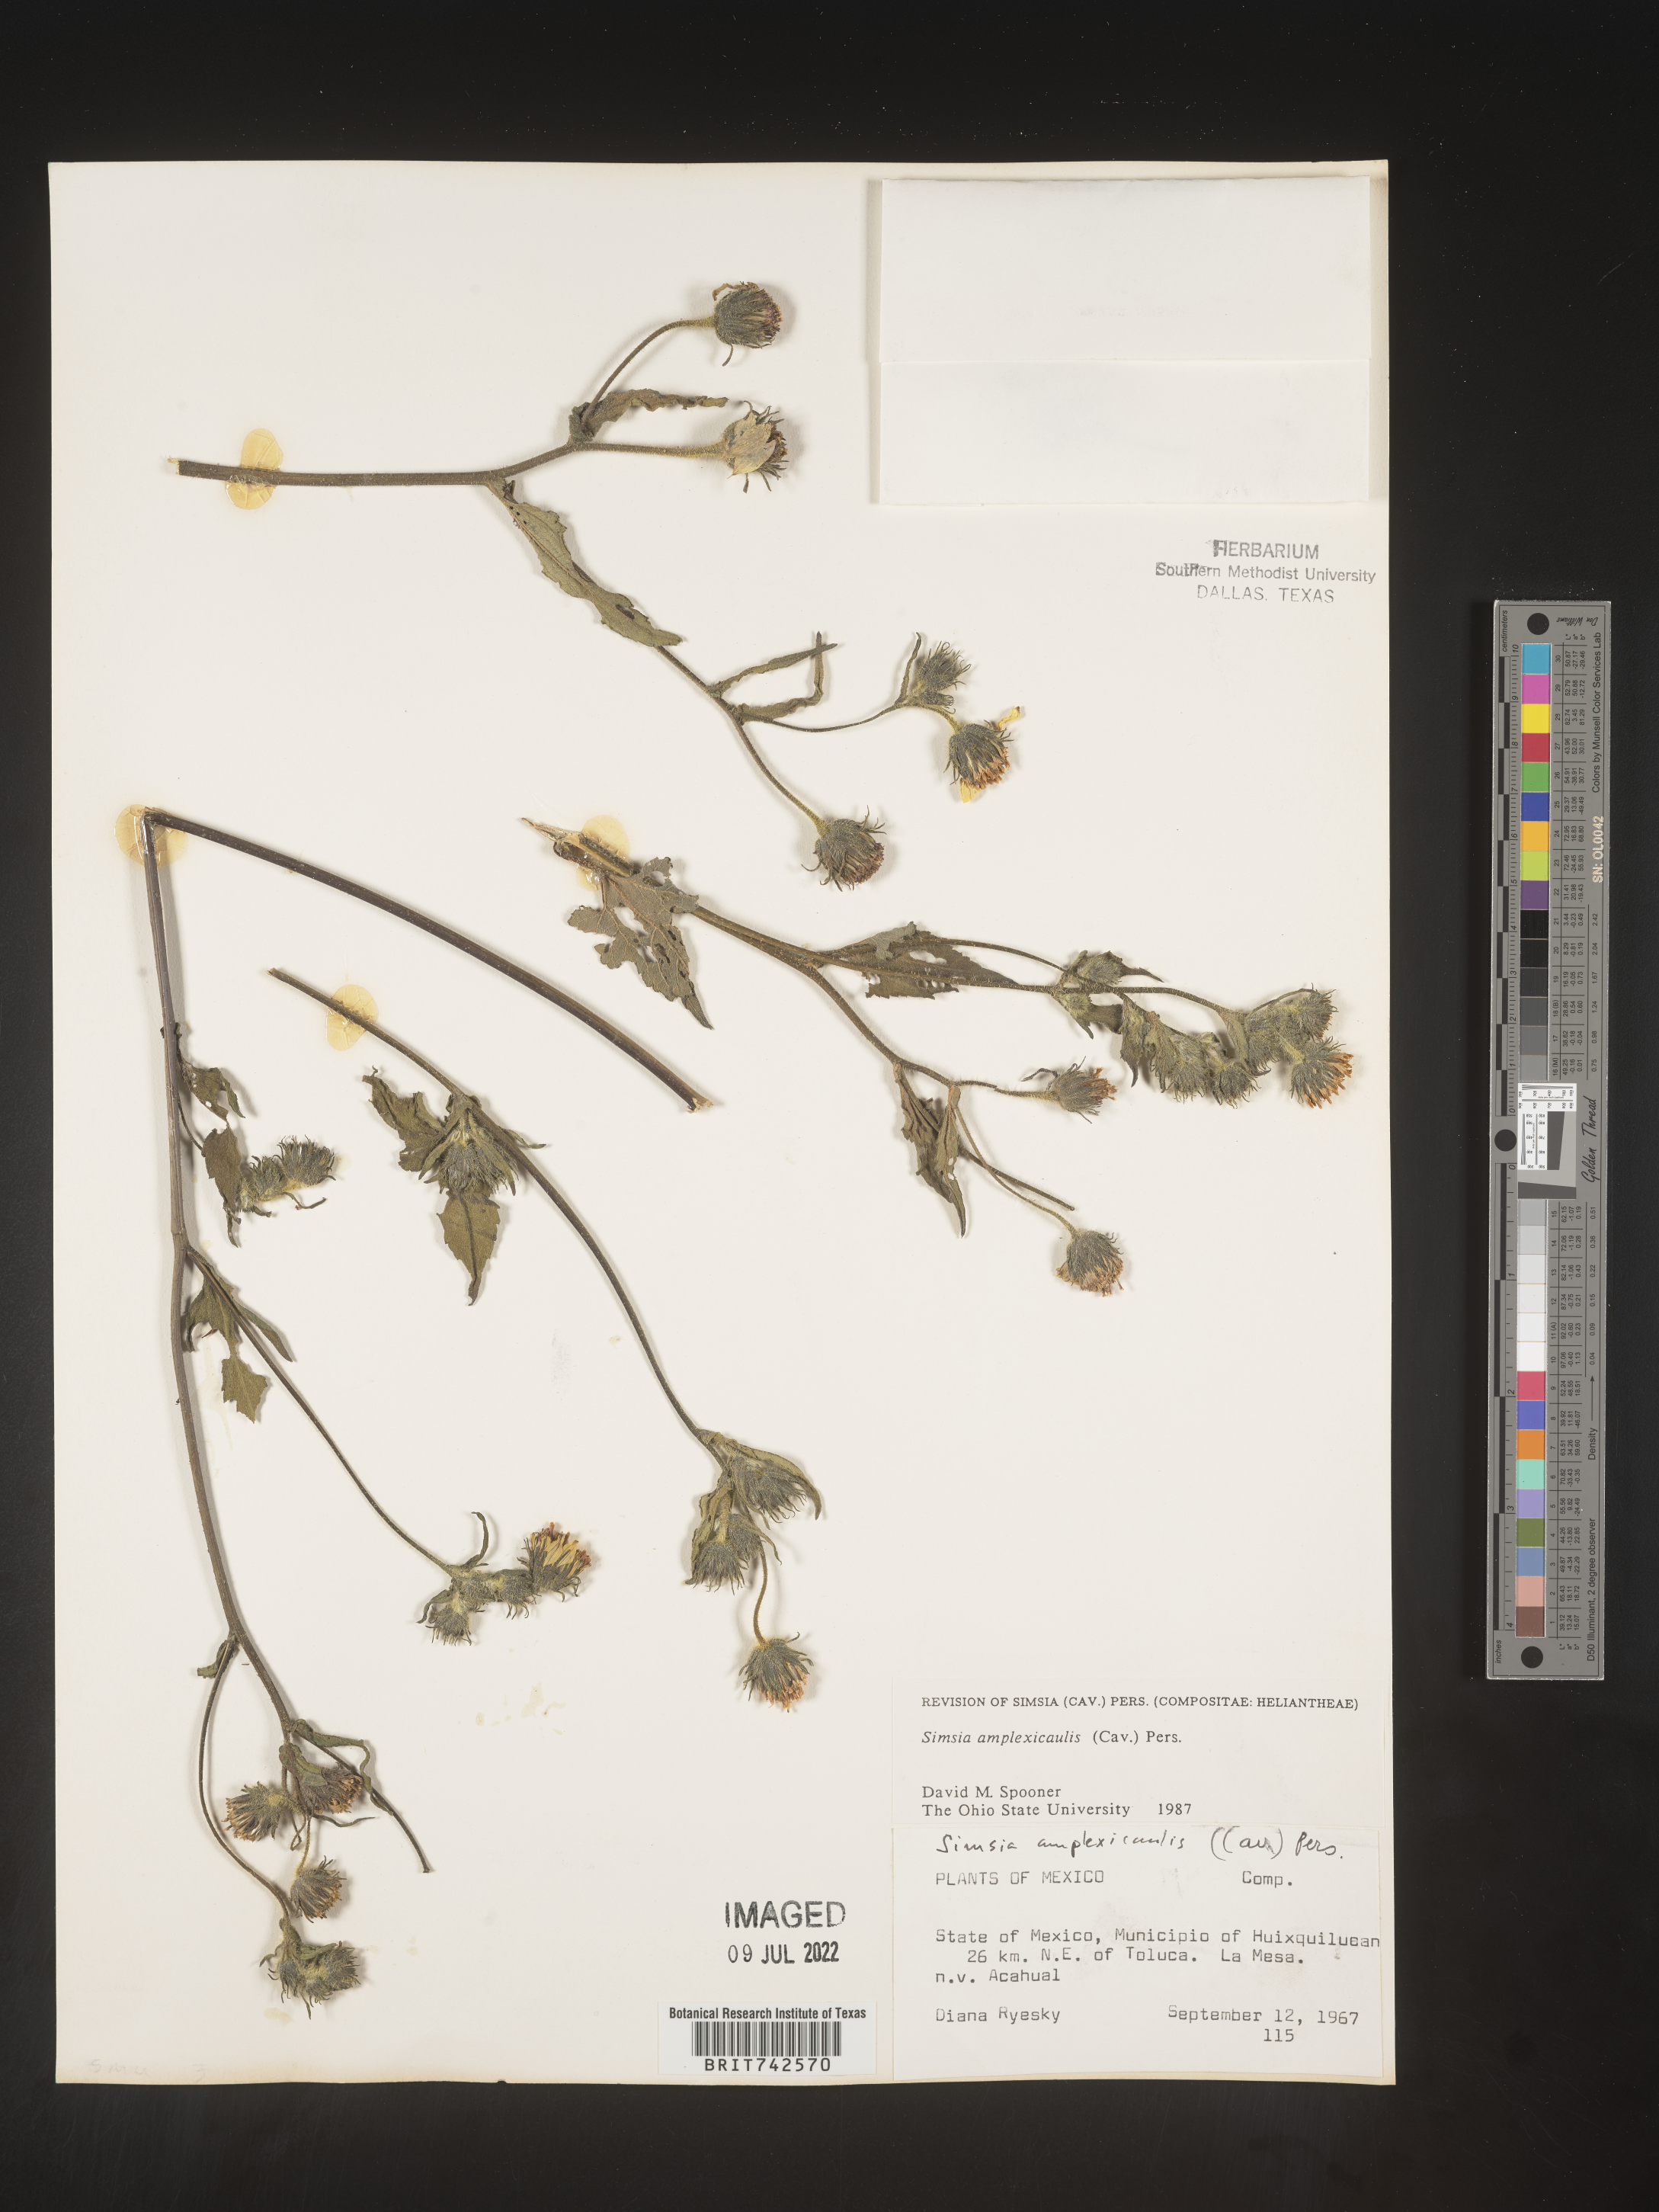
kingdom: Plantae
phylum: Tracheophyta
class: Magnoliopsida
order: Asterales
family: Asteraceae
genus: Simsia
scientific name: Simsia
